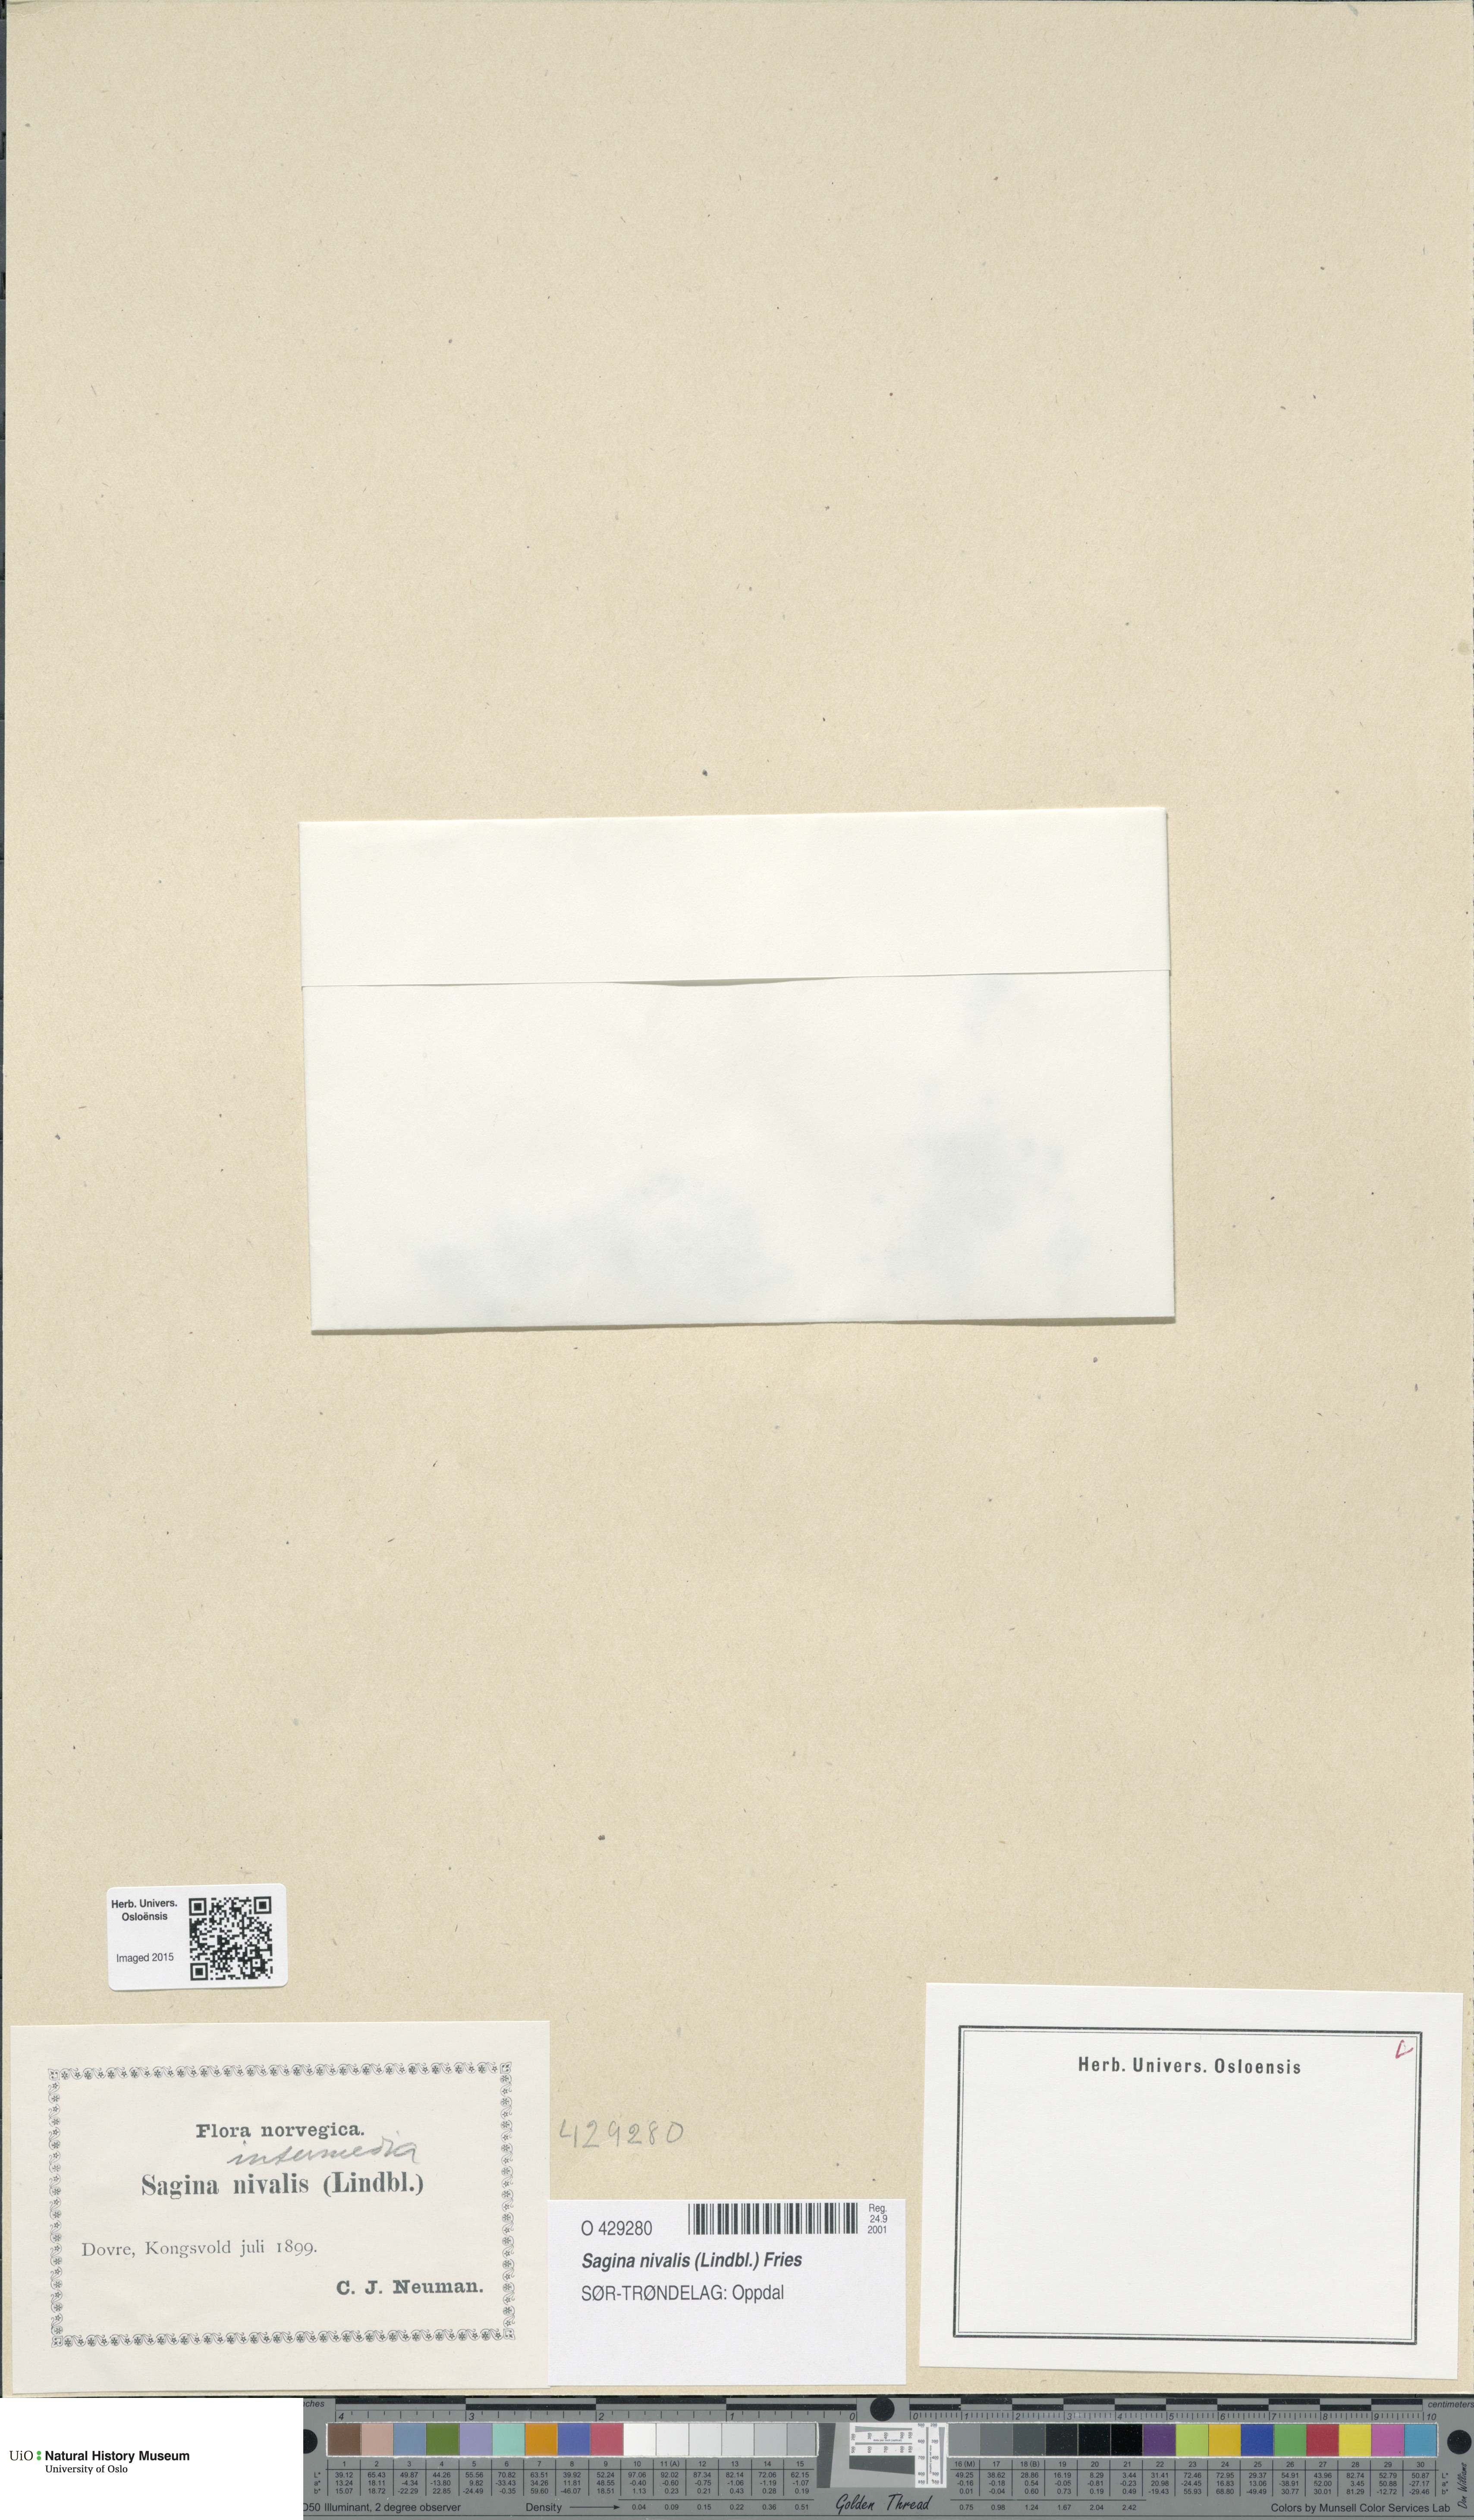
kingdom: Plantae
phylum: Tracheophyta
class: Magnoliopsida
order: Caryophyllales
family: Caryophyllaceae
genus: Sagina
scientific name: Sagina nivalis
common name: Snow pearlwort
